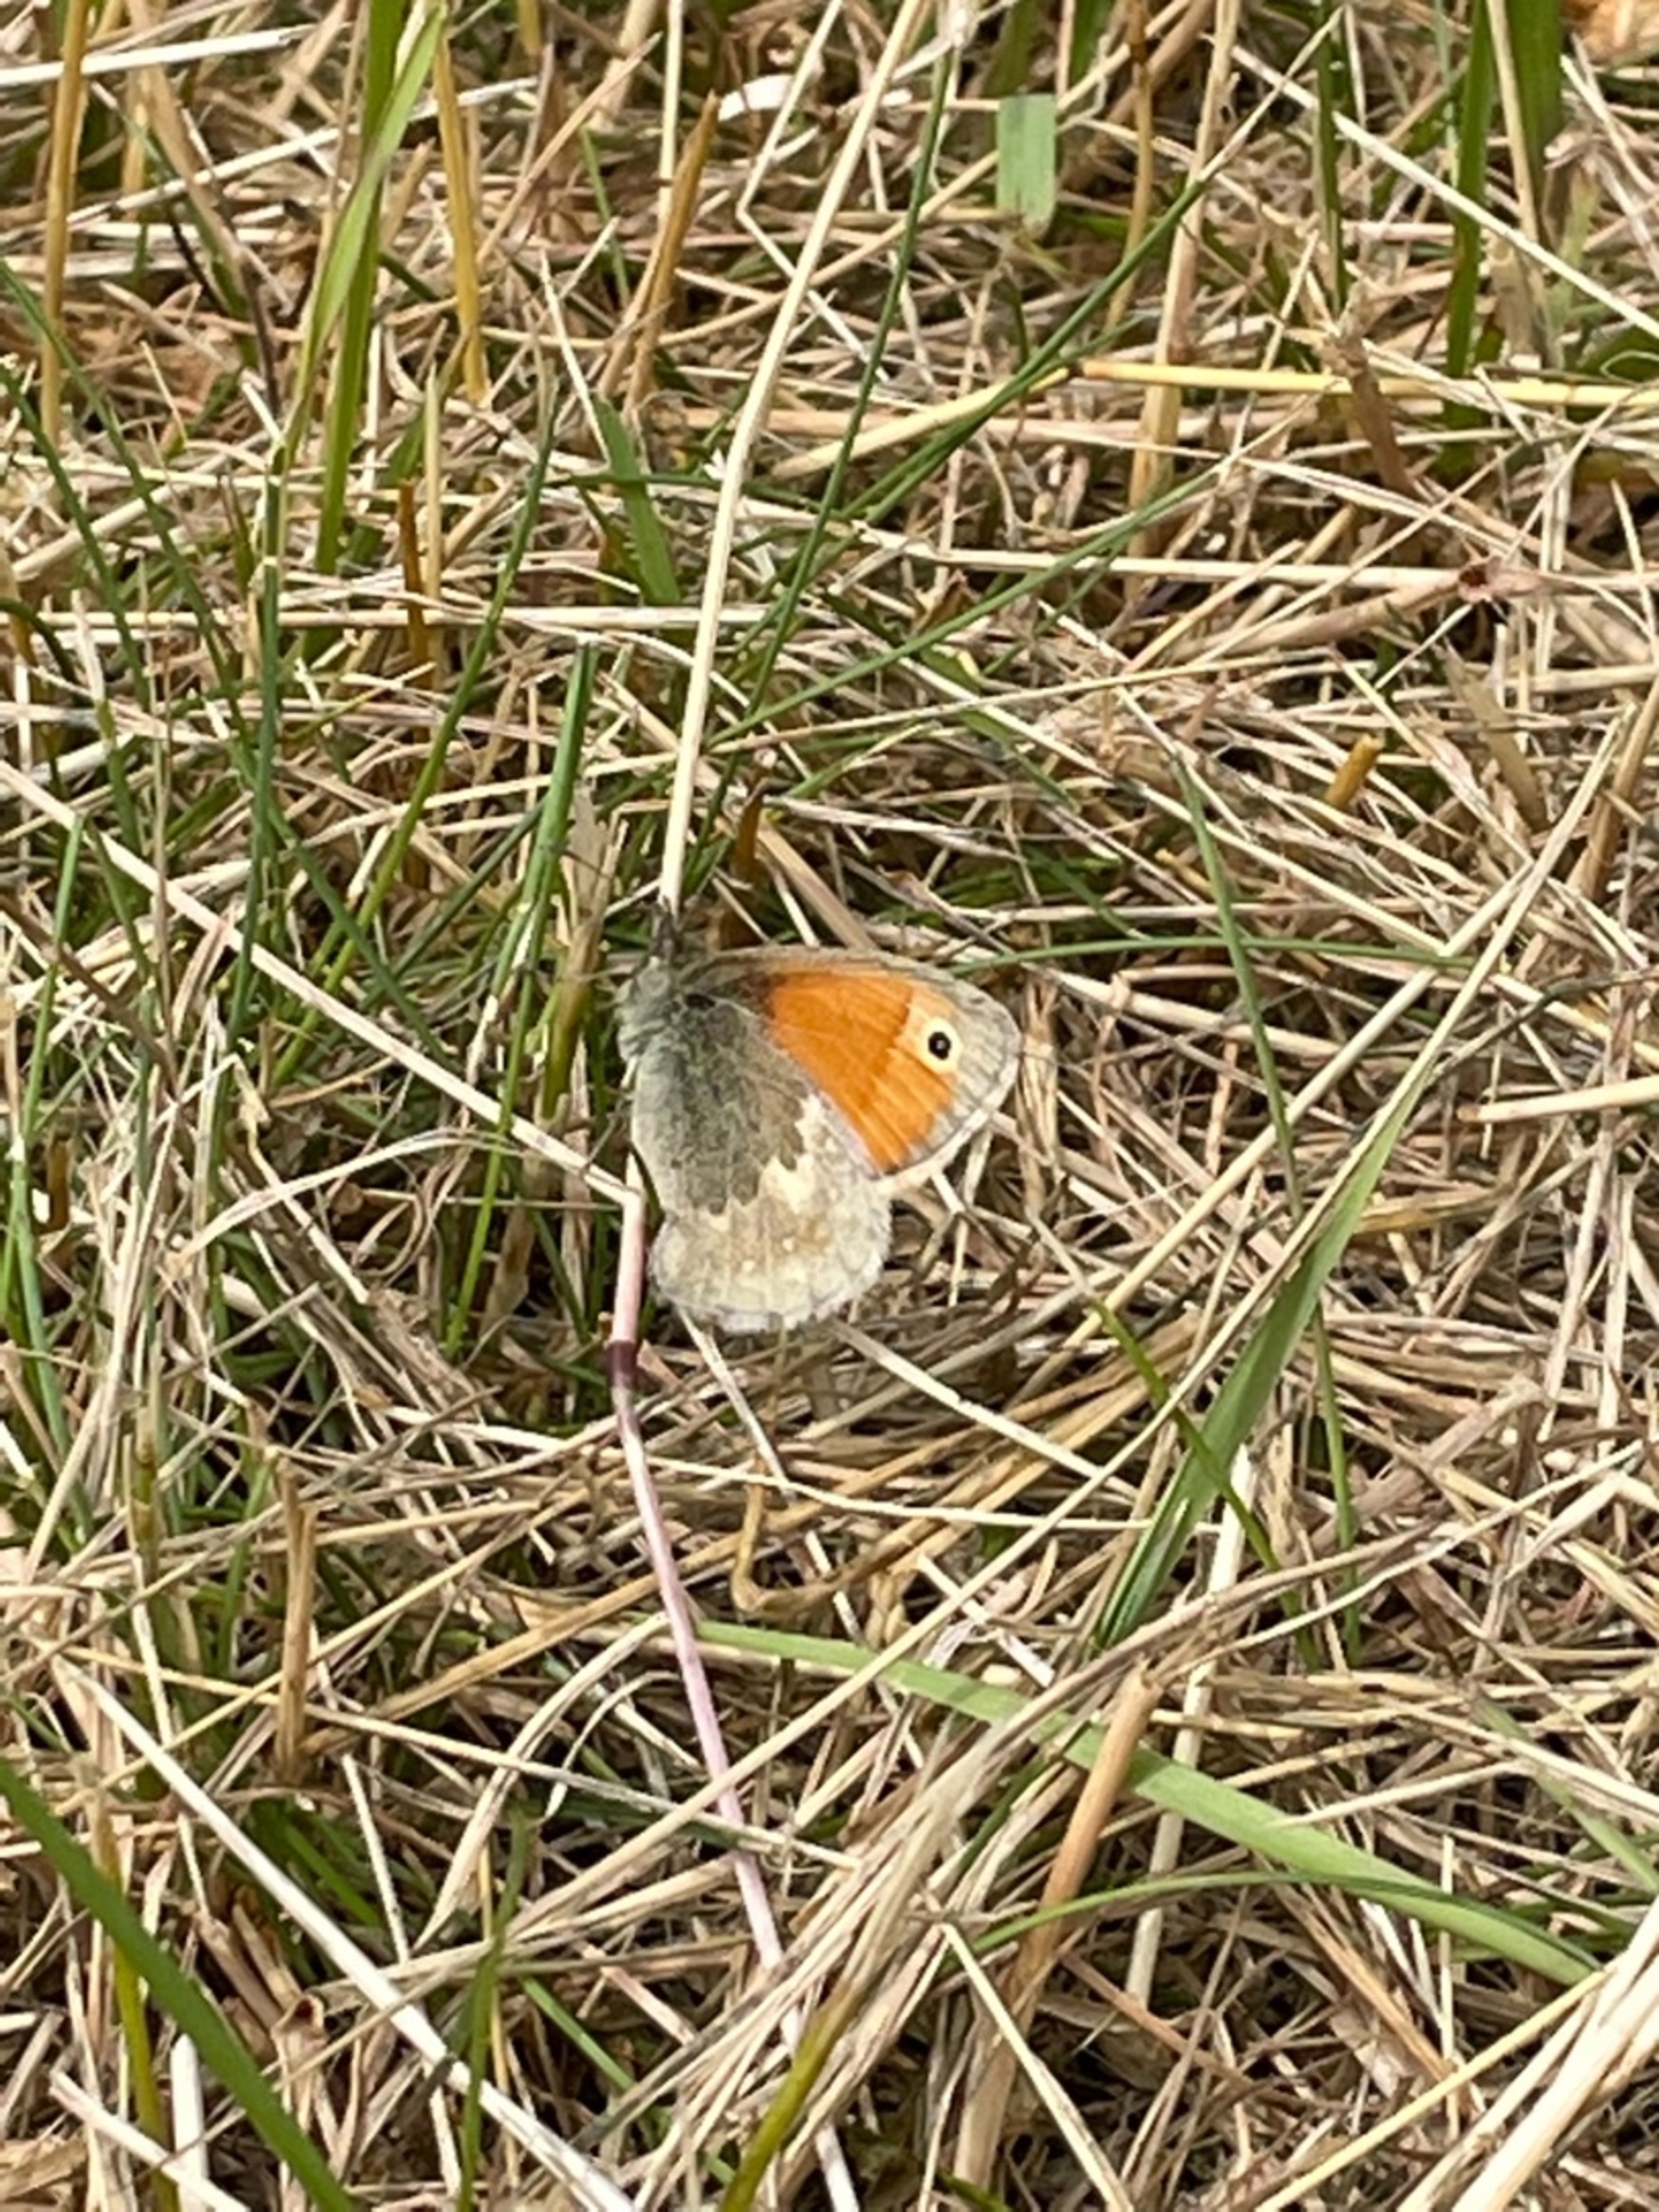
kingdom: Animalia
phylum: Arthropoda
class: Insecta
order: Lepidoptera
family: Nymphalidae
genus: Coenonympha
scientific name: Coenonympha pamphilus
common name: Okkergul randøje
